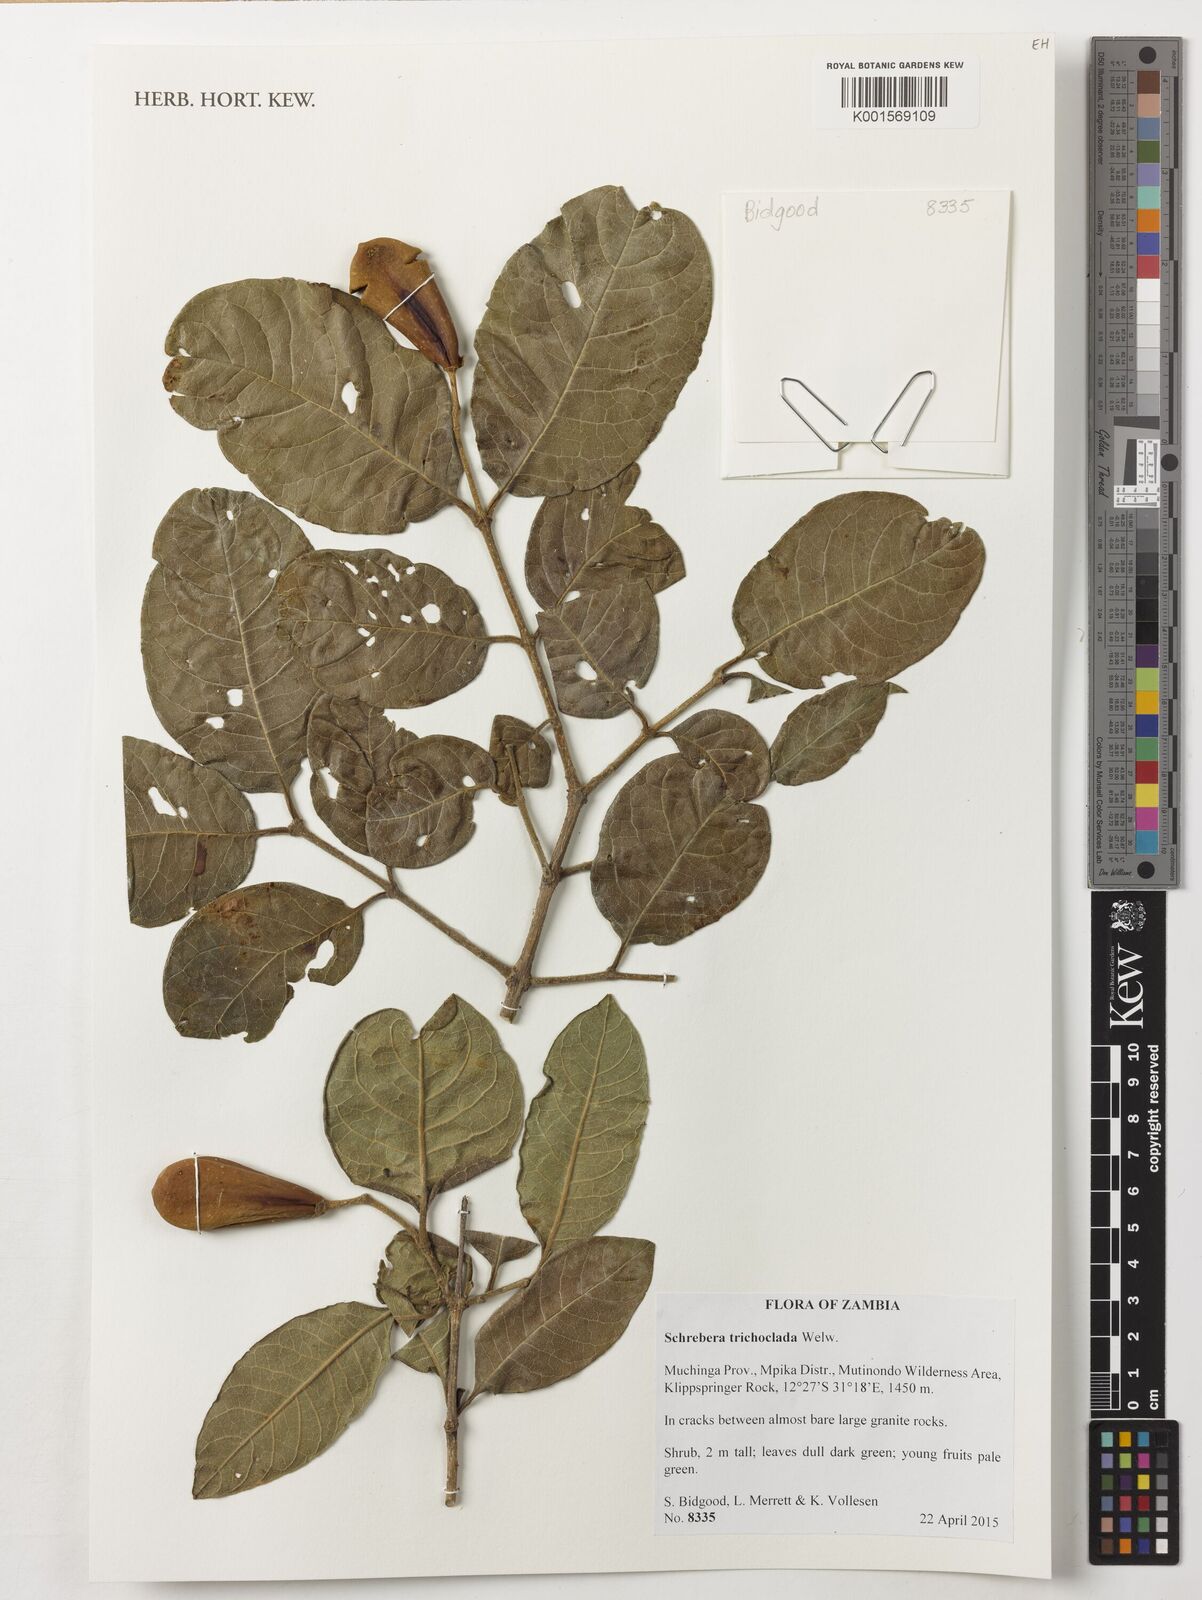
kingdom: Plantae
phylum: Tracheophyta
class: Magnoliopsida
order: Lamiales
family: Oleaceae
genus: Schrebera
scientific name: Schrebera trichoclada
